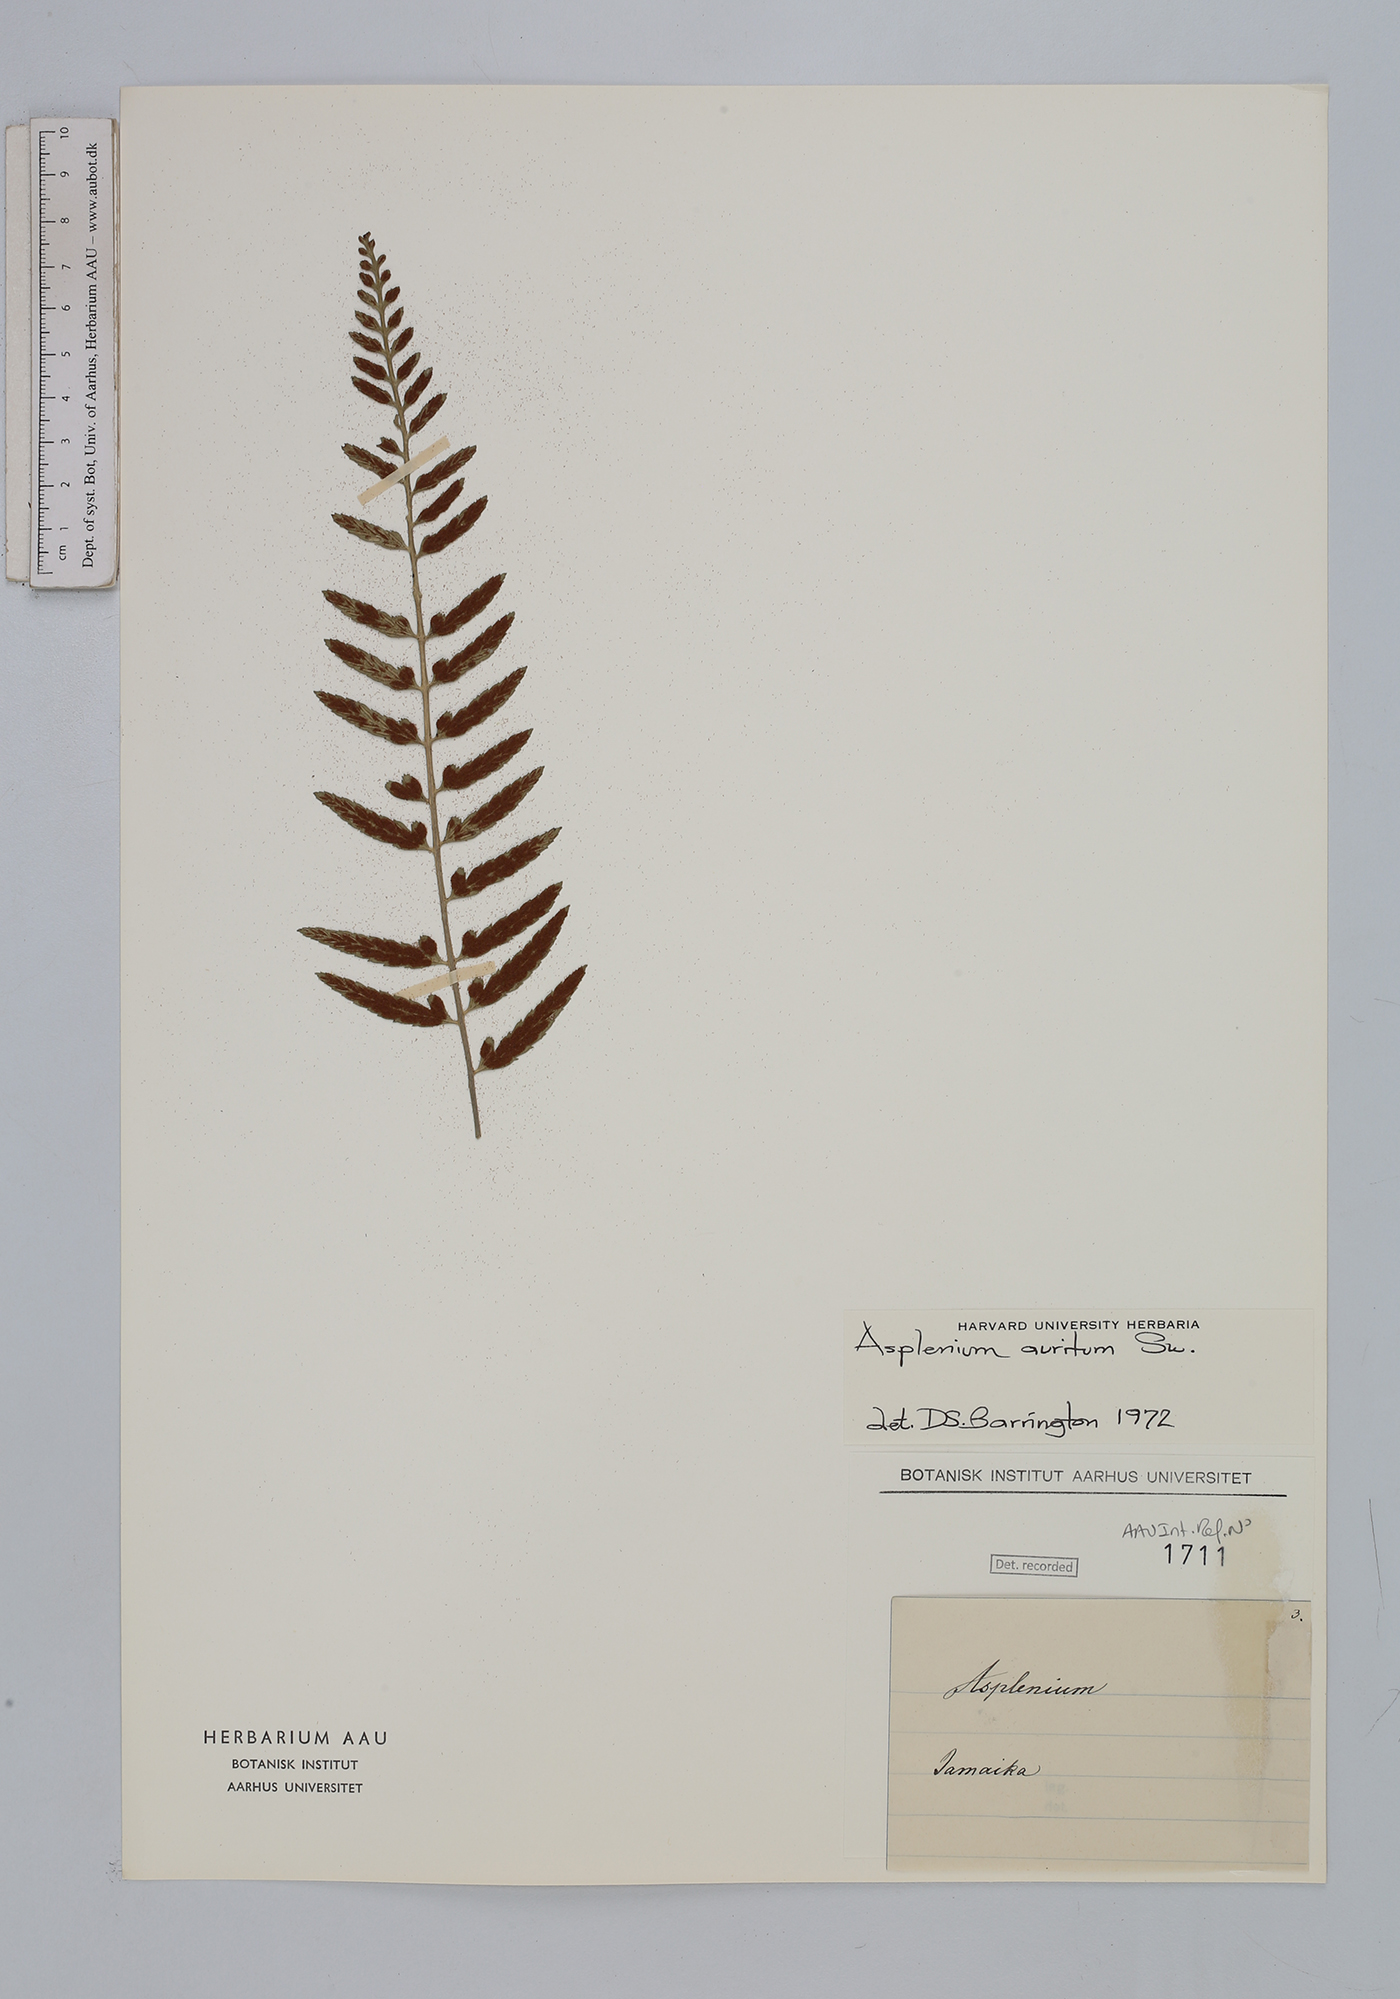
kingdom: Plantae
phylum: Tracheophyta
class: Polypodiopsida
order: Polypodiales
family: Aspleniaceae
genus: Asplenium
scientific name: Asplenium auritum
